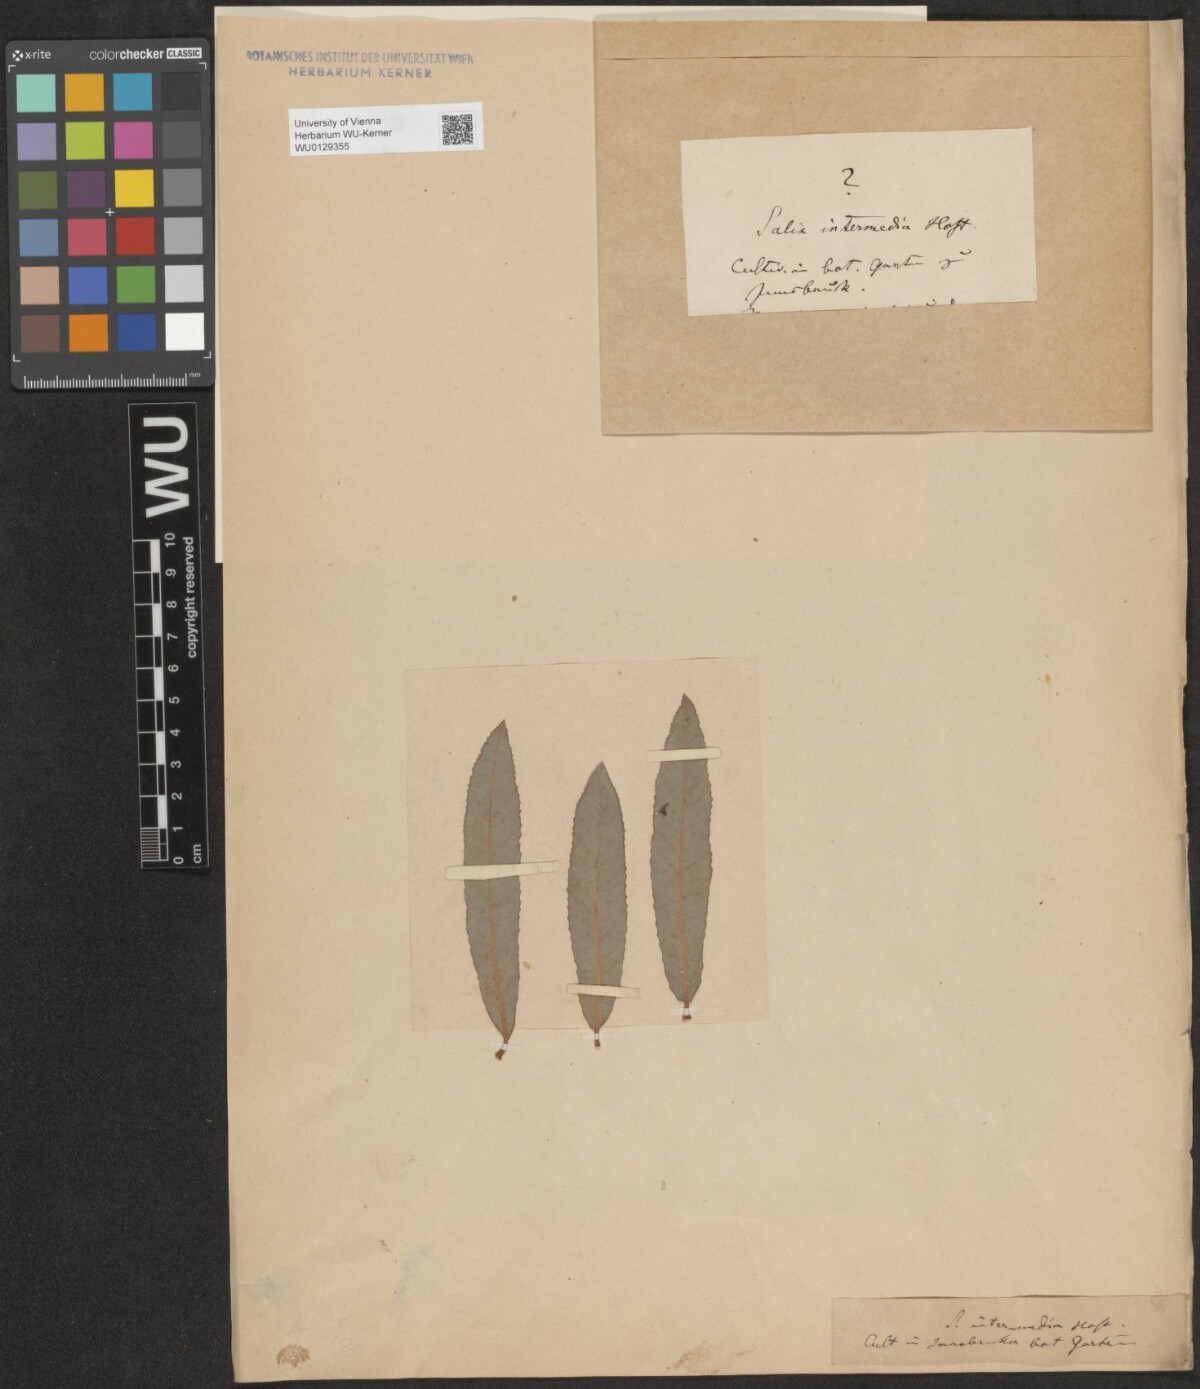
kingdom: Plantae
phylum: Tracheophyta
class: Magnoliopsida
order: Malpighiales
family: Salicaceae
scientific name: Salicaceae
